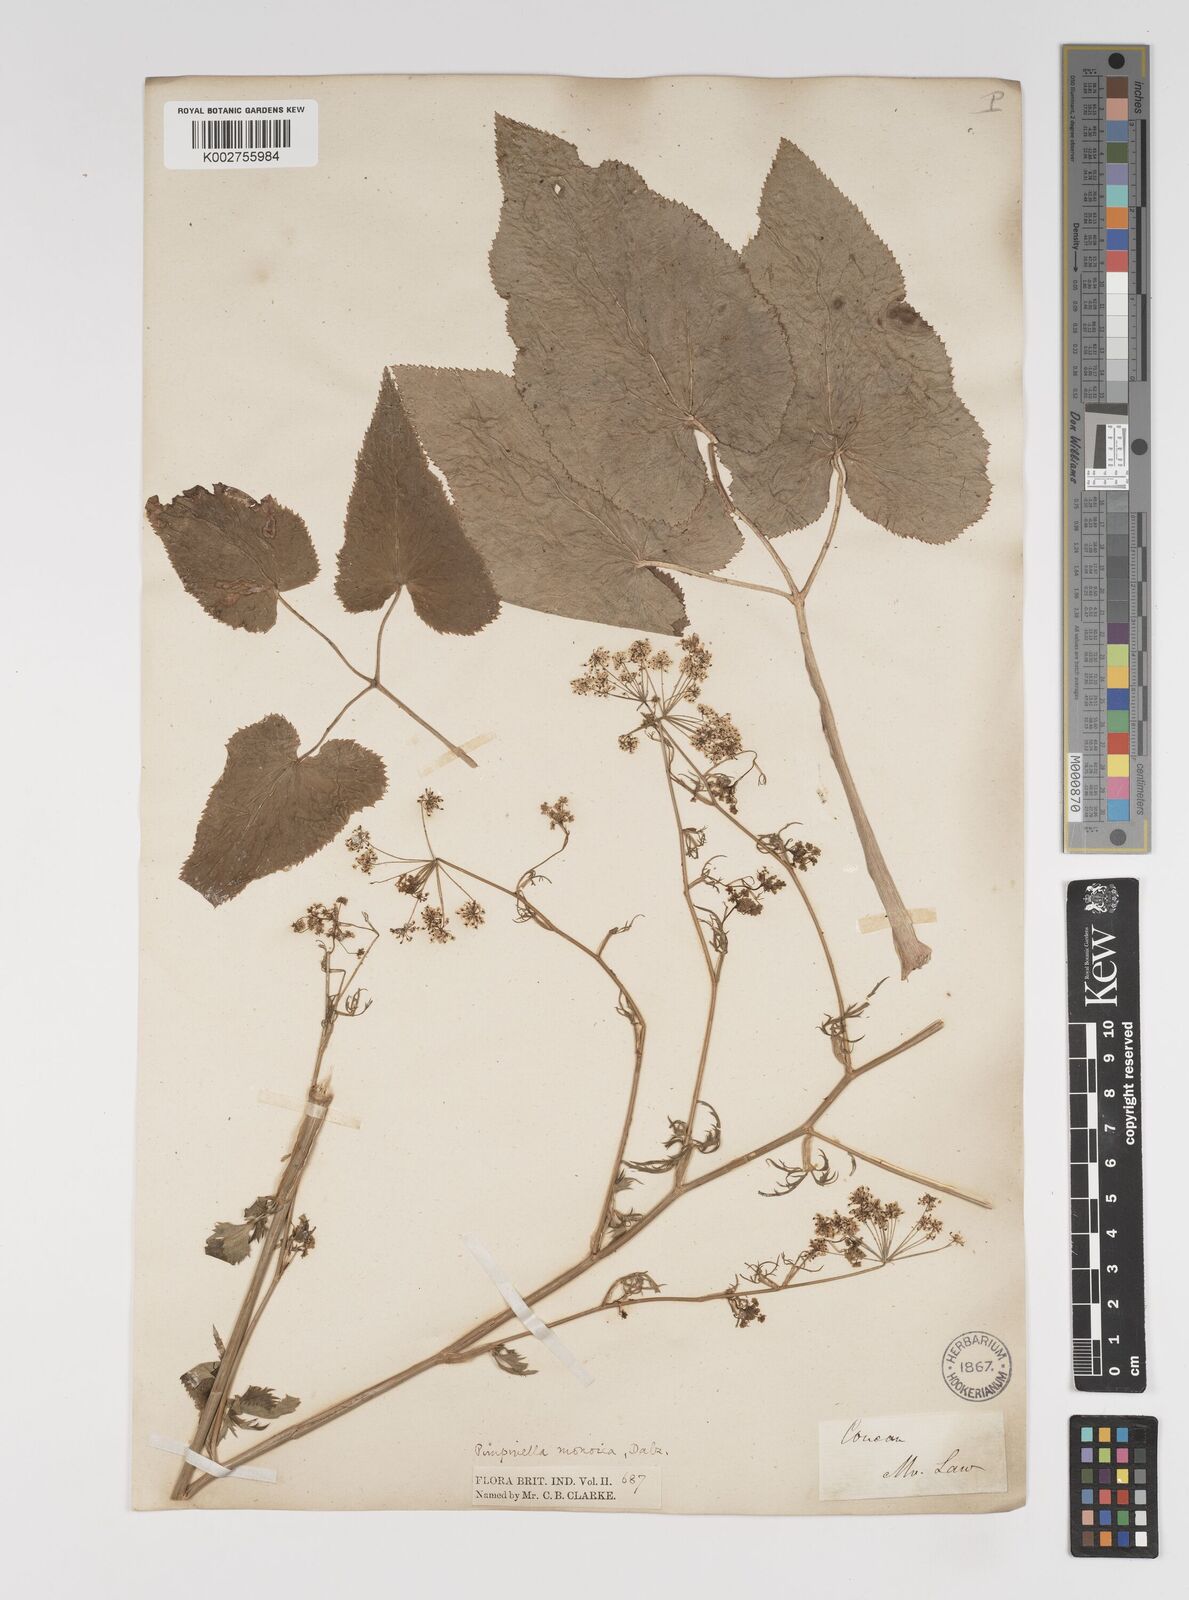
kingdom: Plantae
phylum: Tracheophyta
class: Magnoliopsida
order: Apiales
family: Apiaceae
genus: Pimpinella
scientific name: Pimpinella wallichiana
